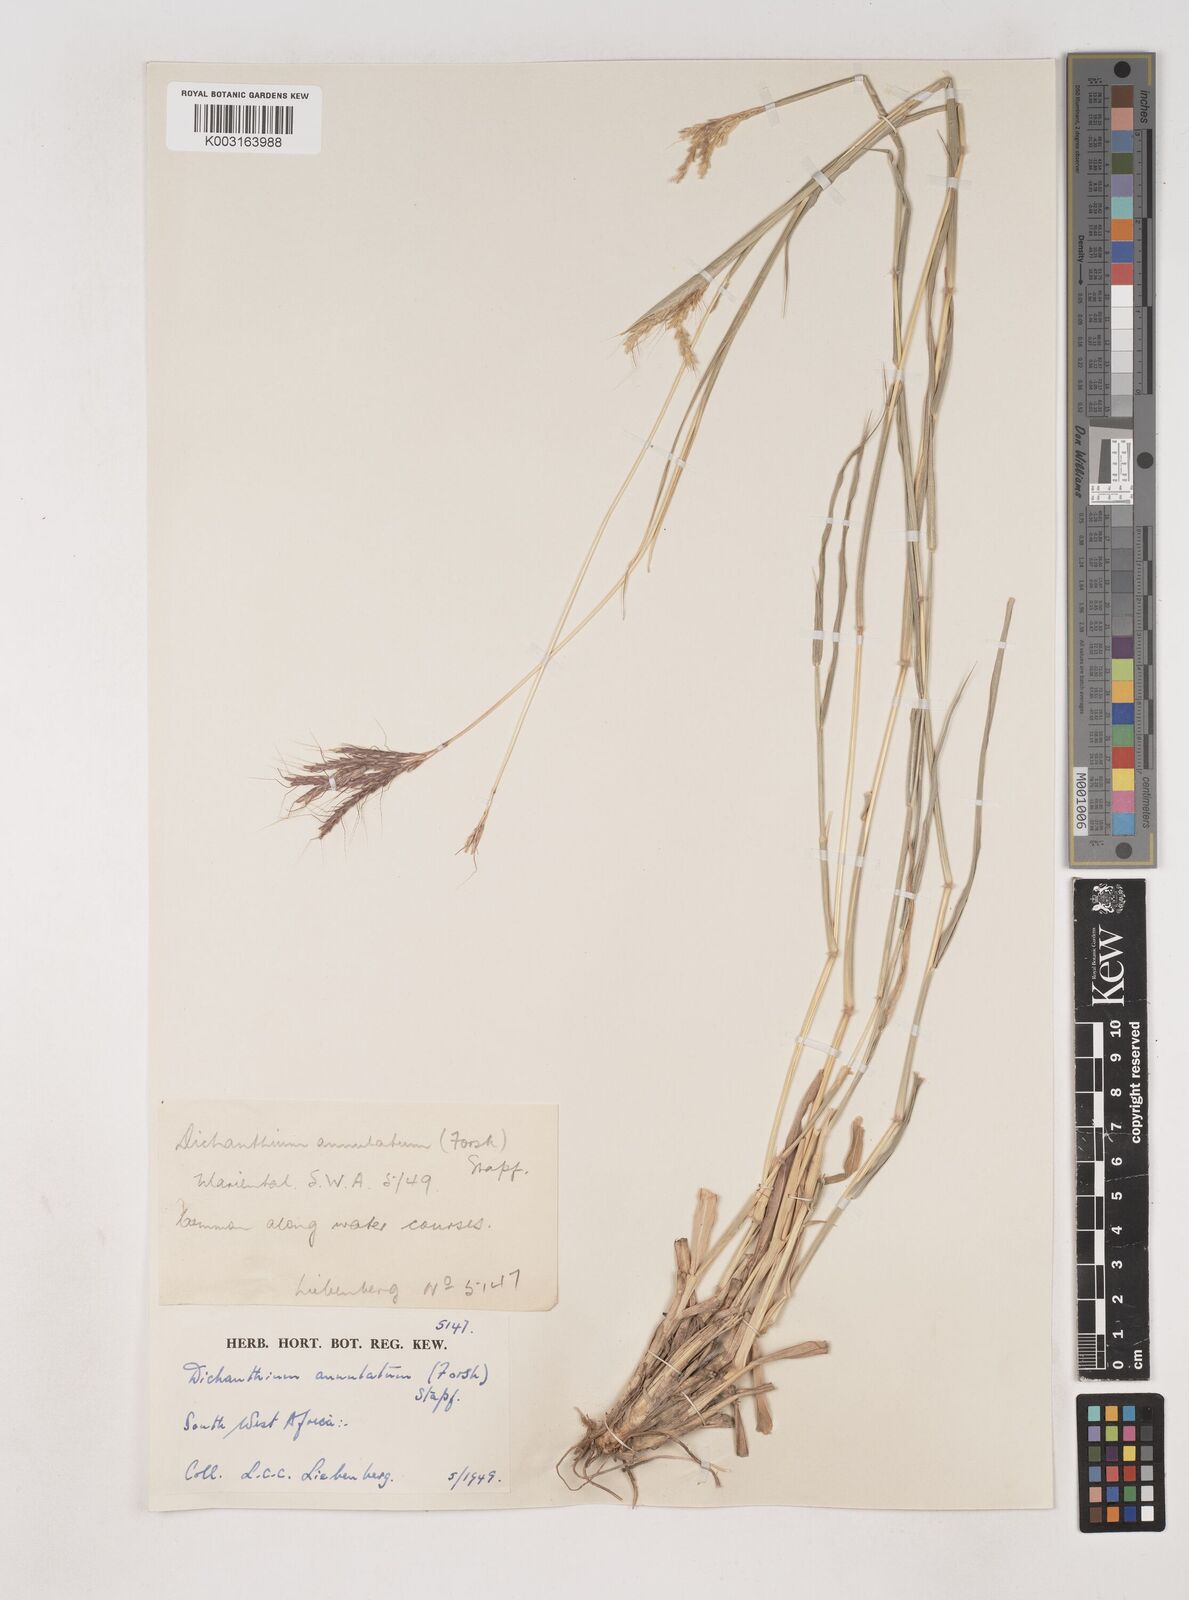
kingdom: Plantae
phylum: Tracheophyta
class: Liliopsida
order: Poales
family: Poaceae
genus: Dichanthium
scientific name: Dichanthium annulatum
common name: Kleberg's bluestem
